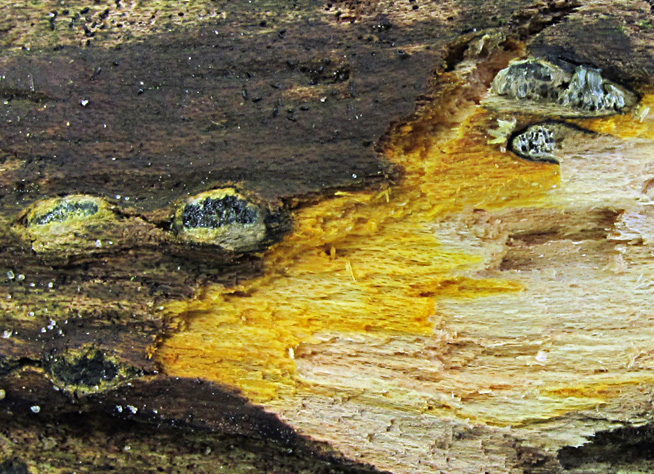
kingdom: Fungi
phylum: Ascomycota
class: Sordariomycetes
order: Boliniales
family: Boliniaceae
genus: Camaropella
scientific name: Camaropella lutea
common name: gulsplint-kulsnegl
